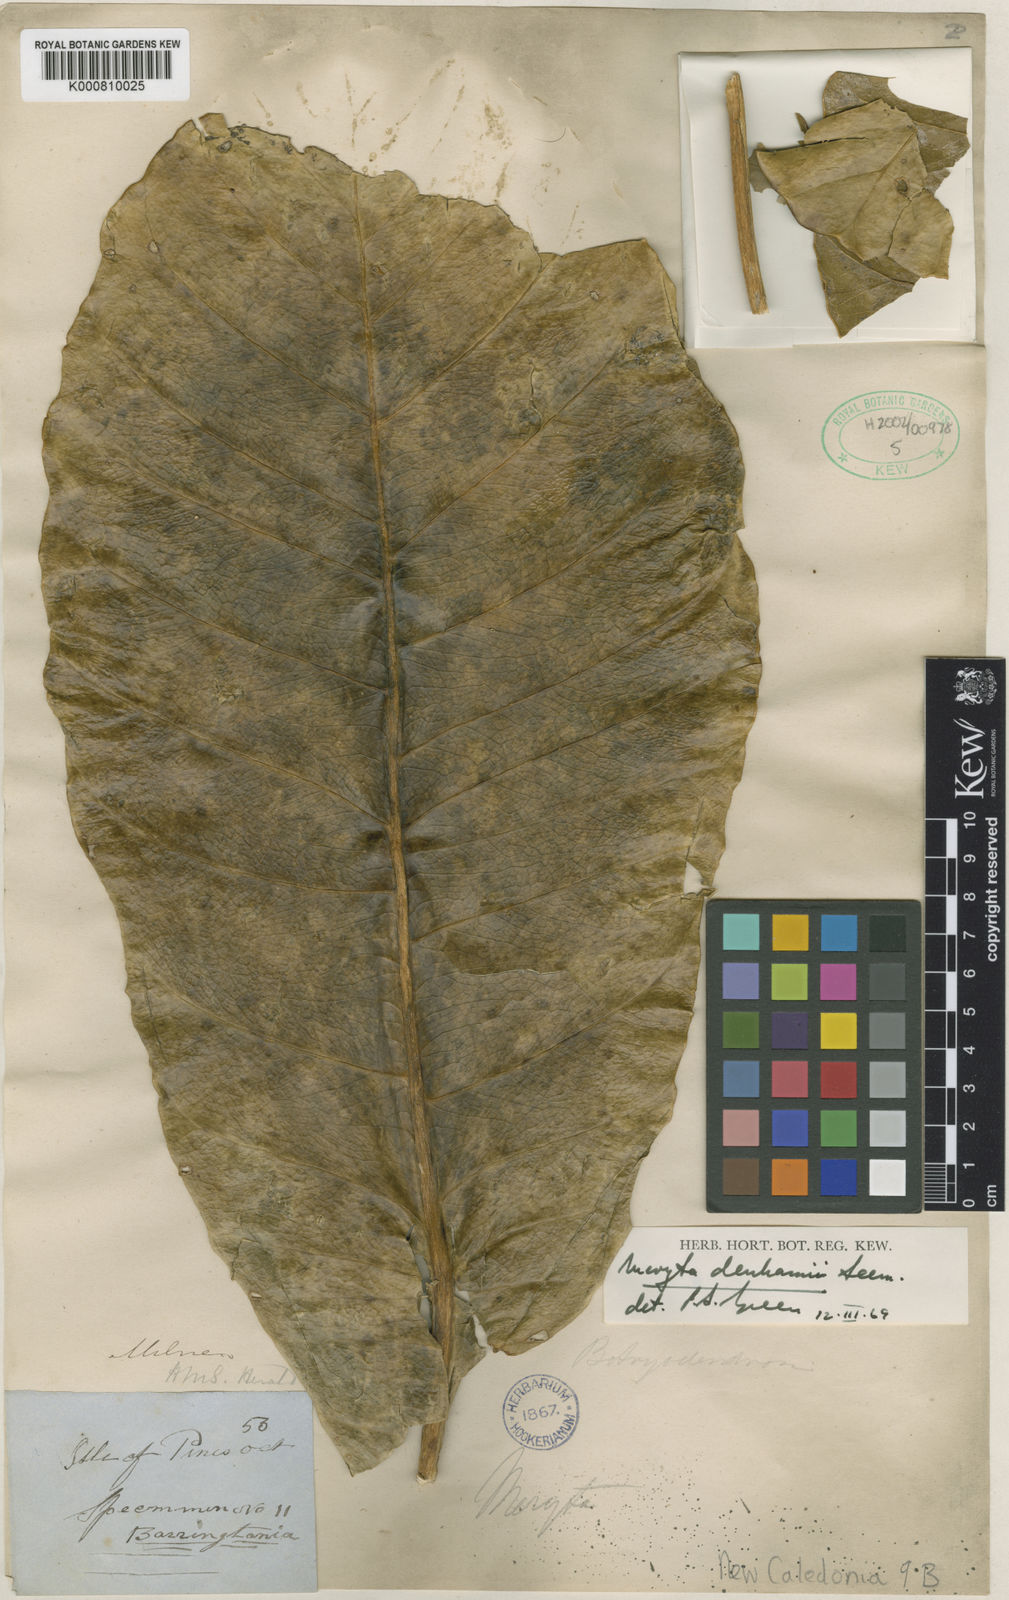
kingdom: Plantae
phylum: Tracheophyta
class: Magnoliopsida
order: Apiales
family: Araliaceae
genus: Meryta
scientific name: Meryta denhamii
